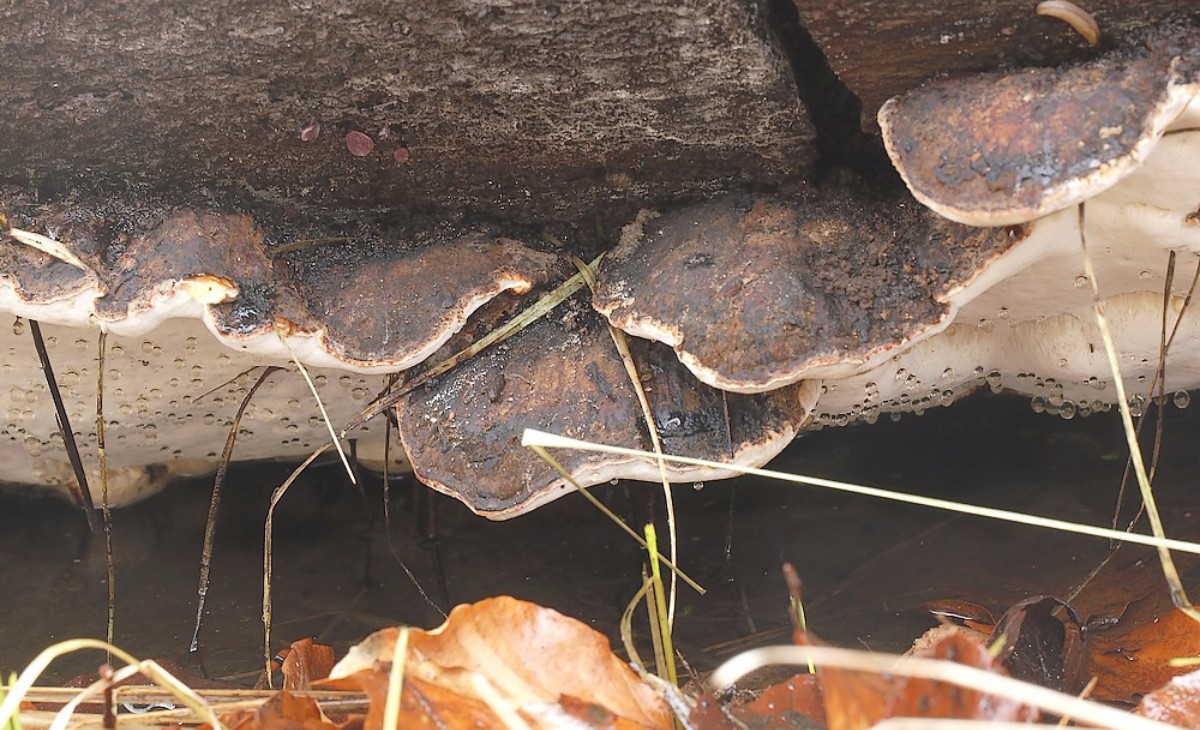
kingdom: Fungi
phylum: Basidiomycota
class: Agaricomycetes
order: Polyporales
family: Ischnodermataceae
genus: Ischnoderma
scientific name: Ischnoderma resinosum
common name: løv-tjæreporesvamp
